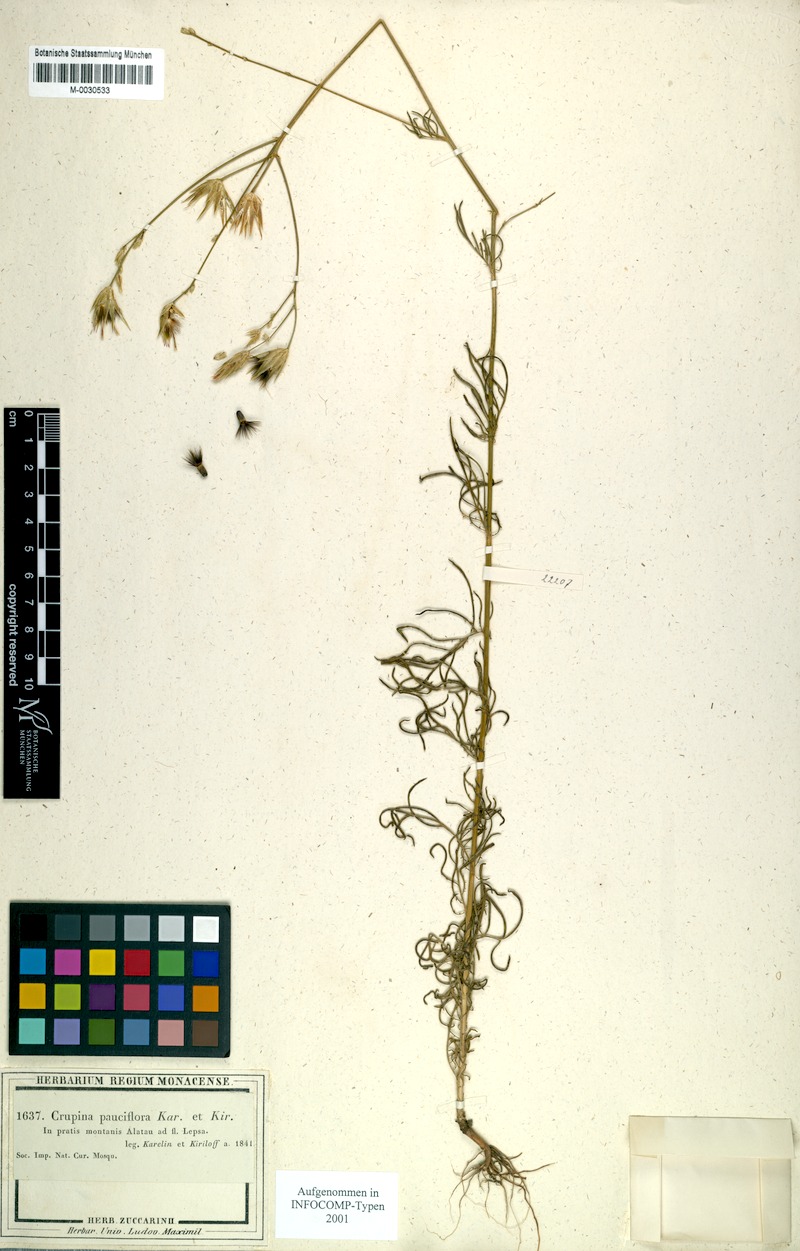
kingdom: Plantae
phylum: Tracheophyta
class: Magnoliopsida
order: Asterales
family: Asteraceae
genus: Crupina
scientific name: Crupina vulgaris
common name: Common crupina
